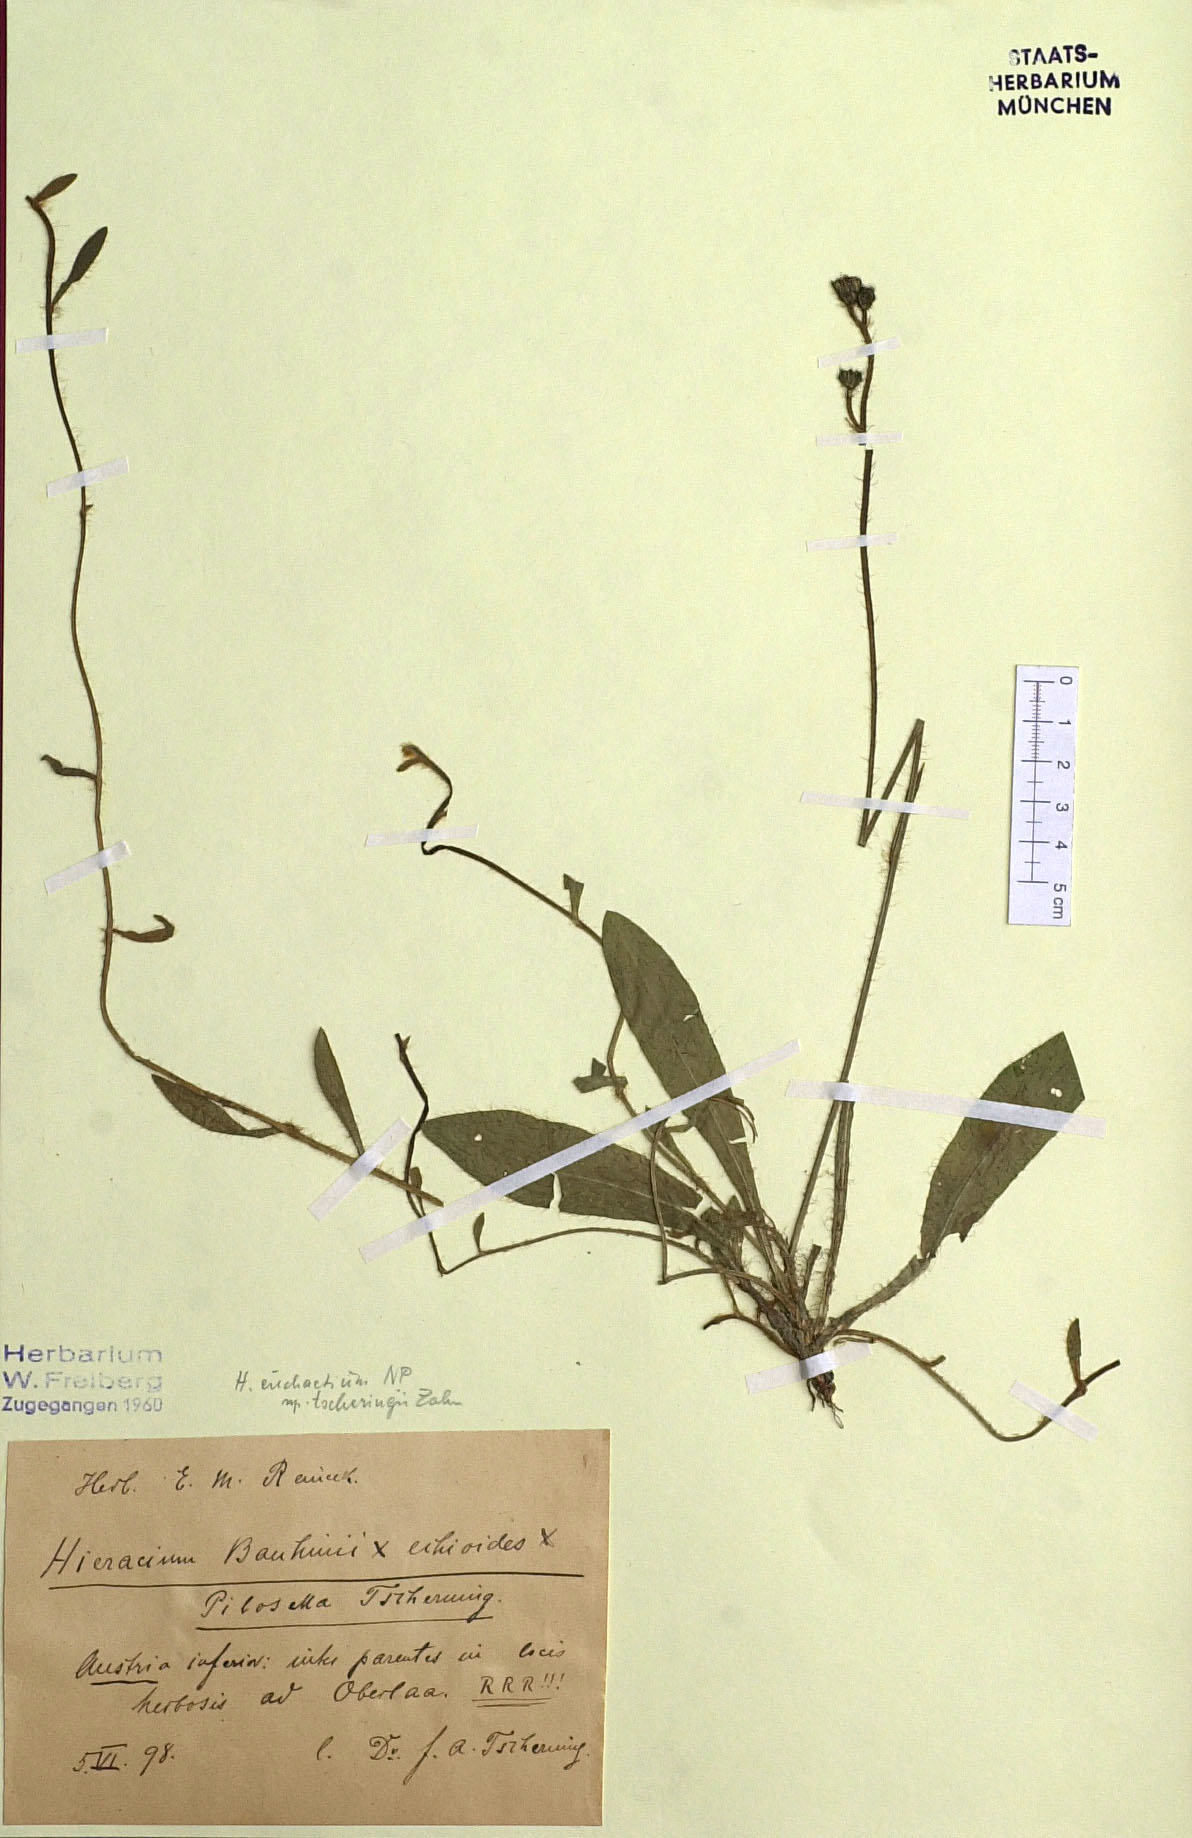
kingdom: Plantae
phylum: Tracheophyta
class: Magnoliopsida
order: Asterales
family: Asteraceae
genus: Pilosella
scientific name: Pilosella euchaetia
